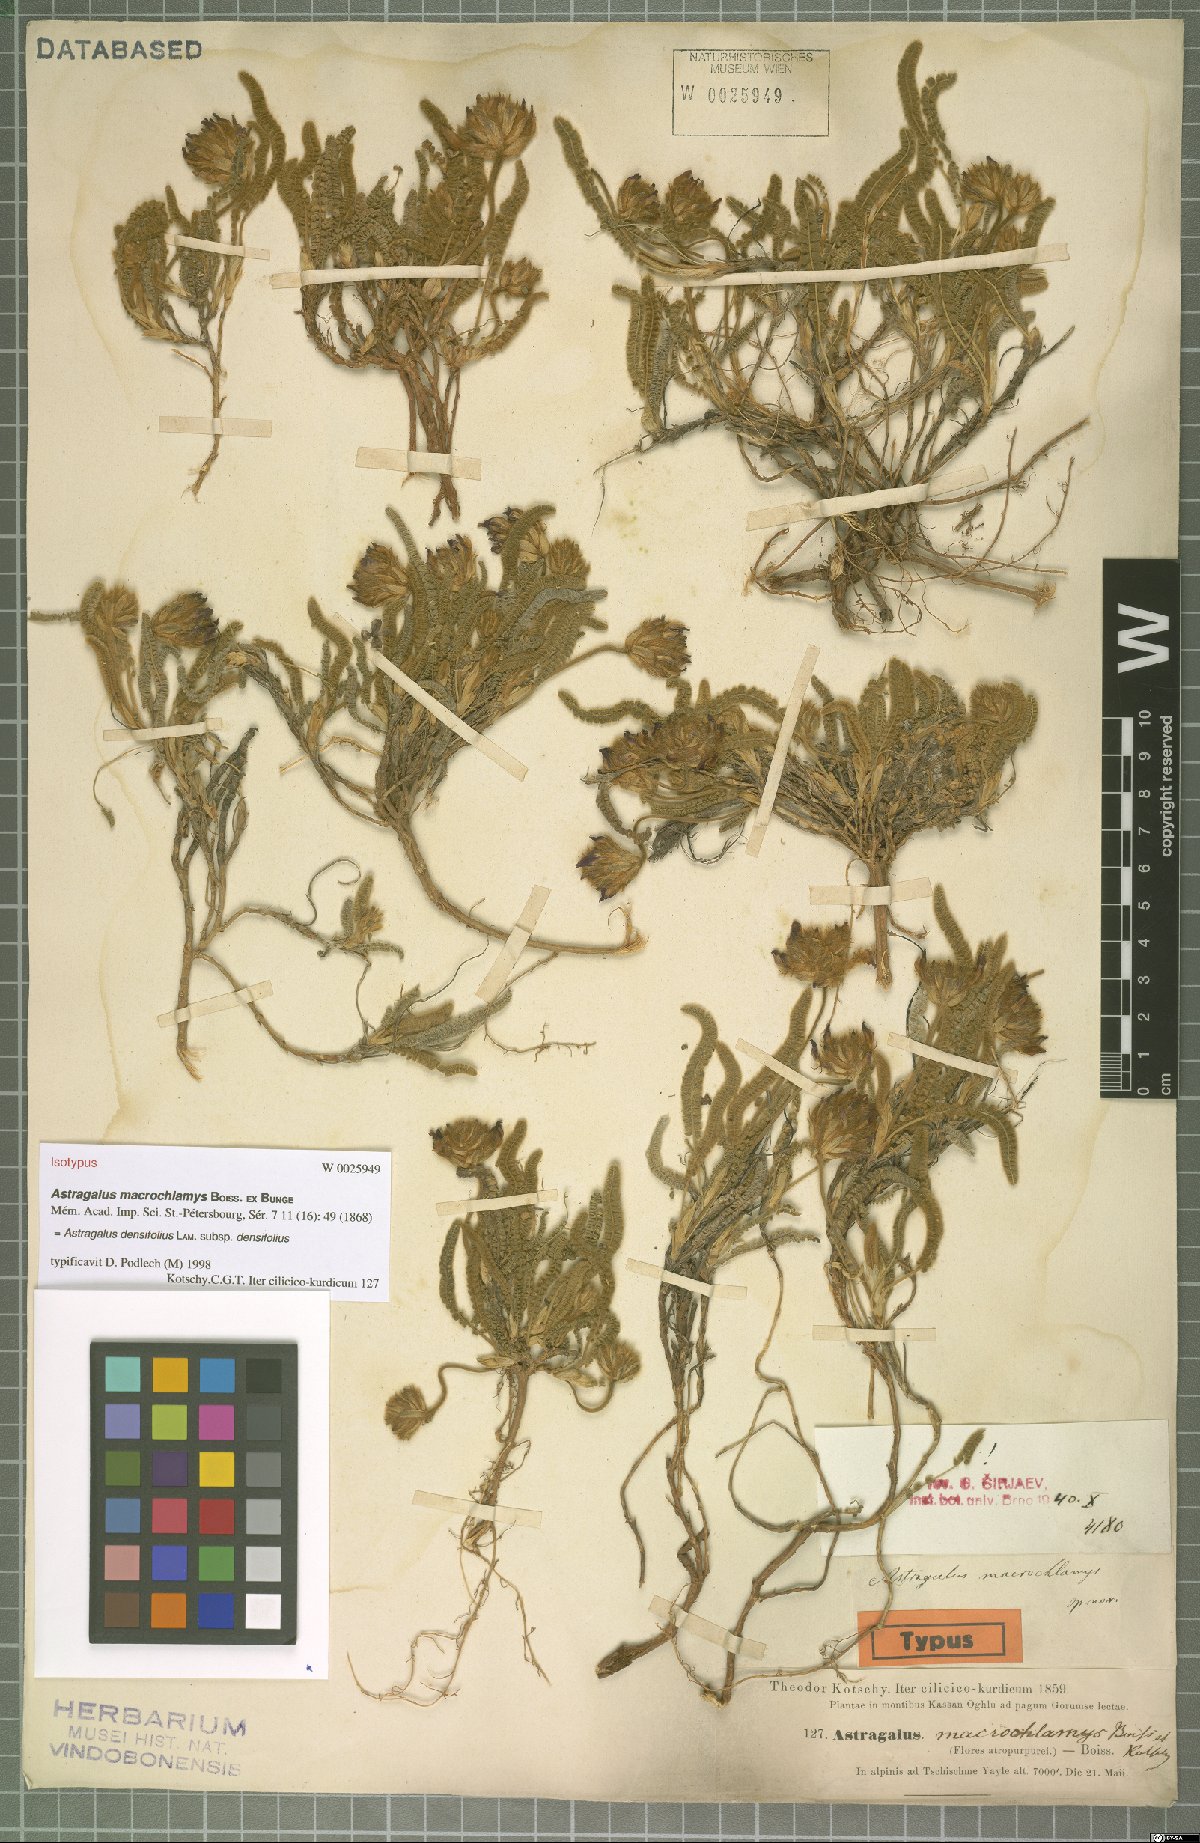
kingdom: Plantae
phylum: Tracheophyta
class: Magnoliopsida
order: Fabales
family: Fabaceae
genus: Astragalus
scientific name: Astragalus densifolius
